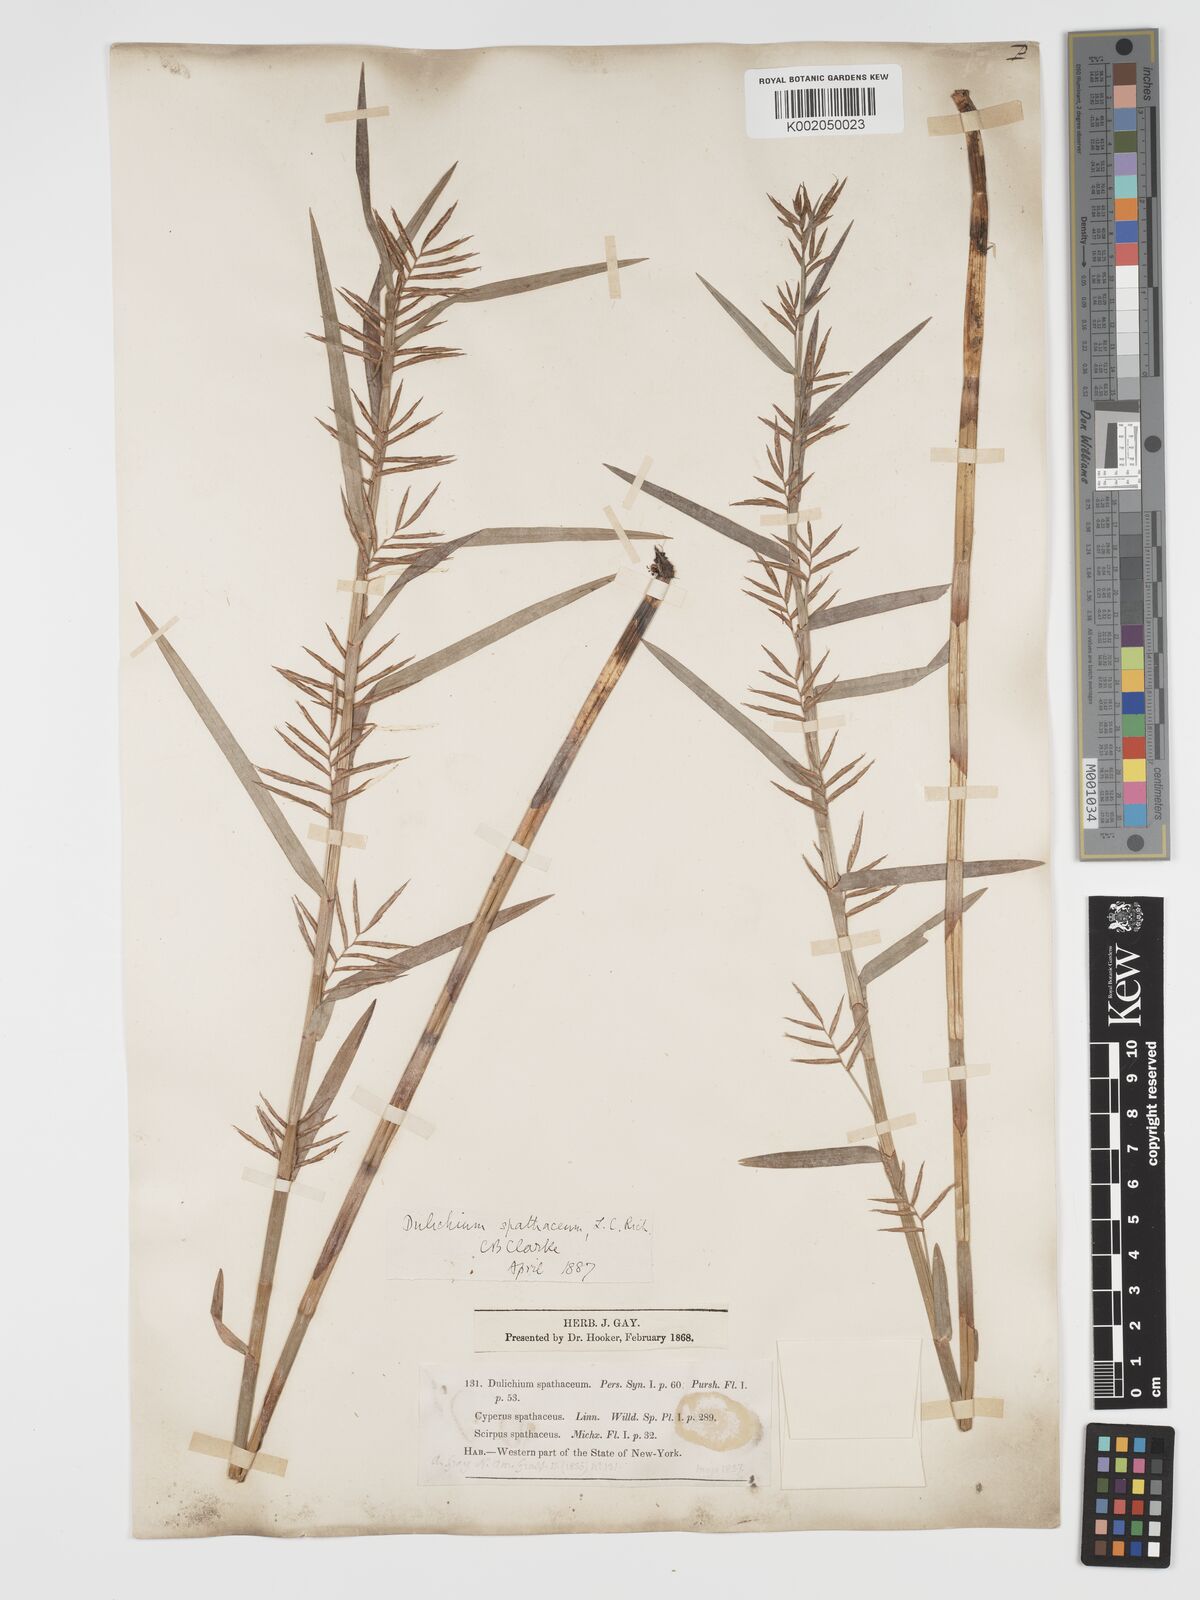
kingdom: Plantae
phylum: Tracheophyta
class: Liliopsida
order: Poales
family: Cyperaceae
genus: Dulichium
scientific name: Dulichium arundinaceum
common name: Three-way sedge
